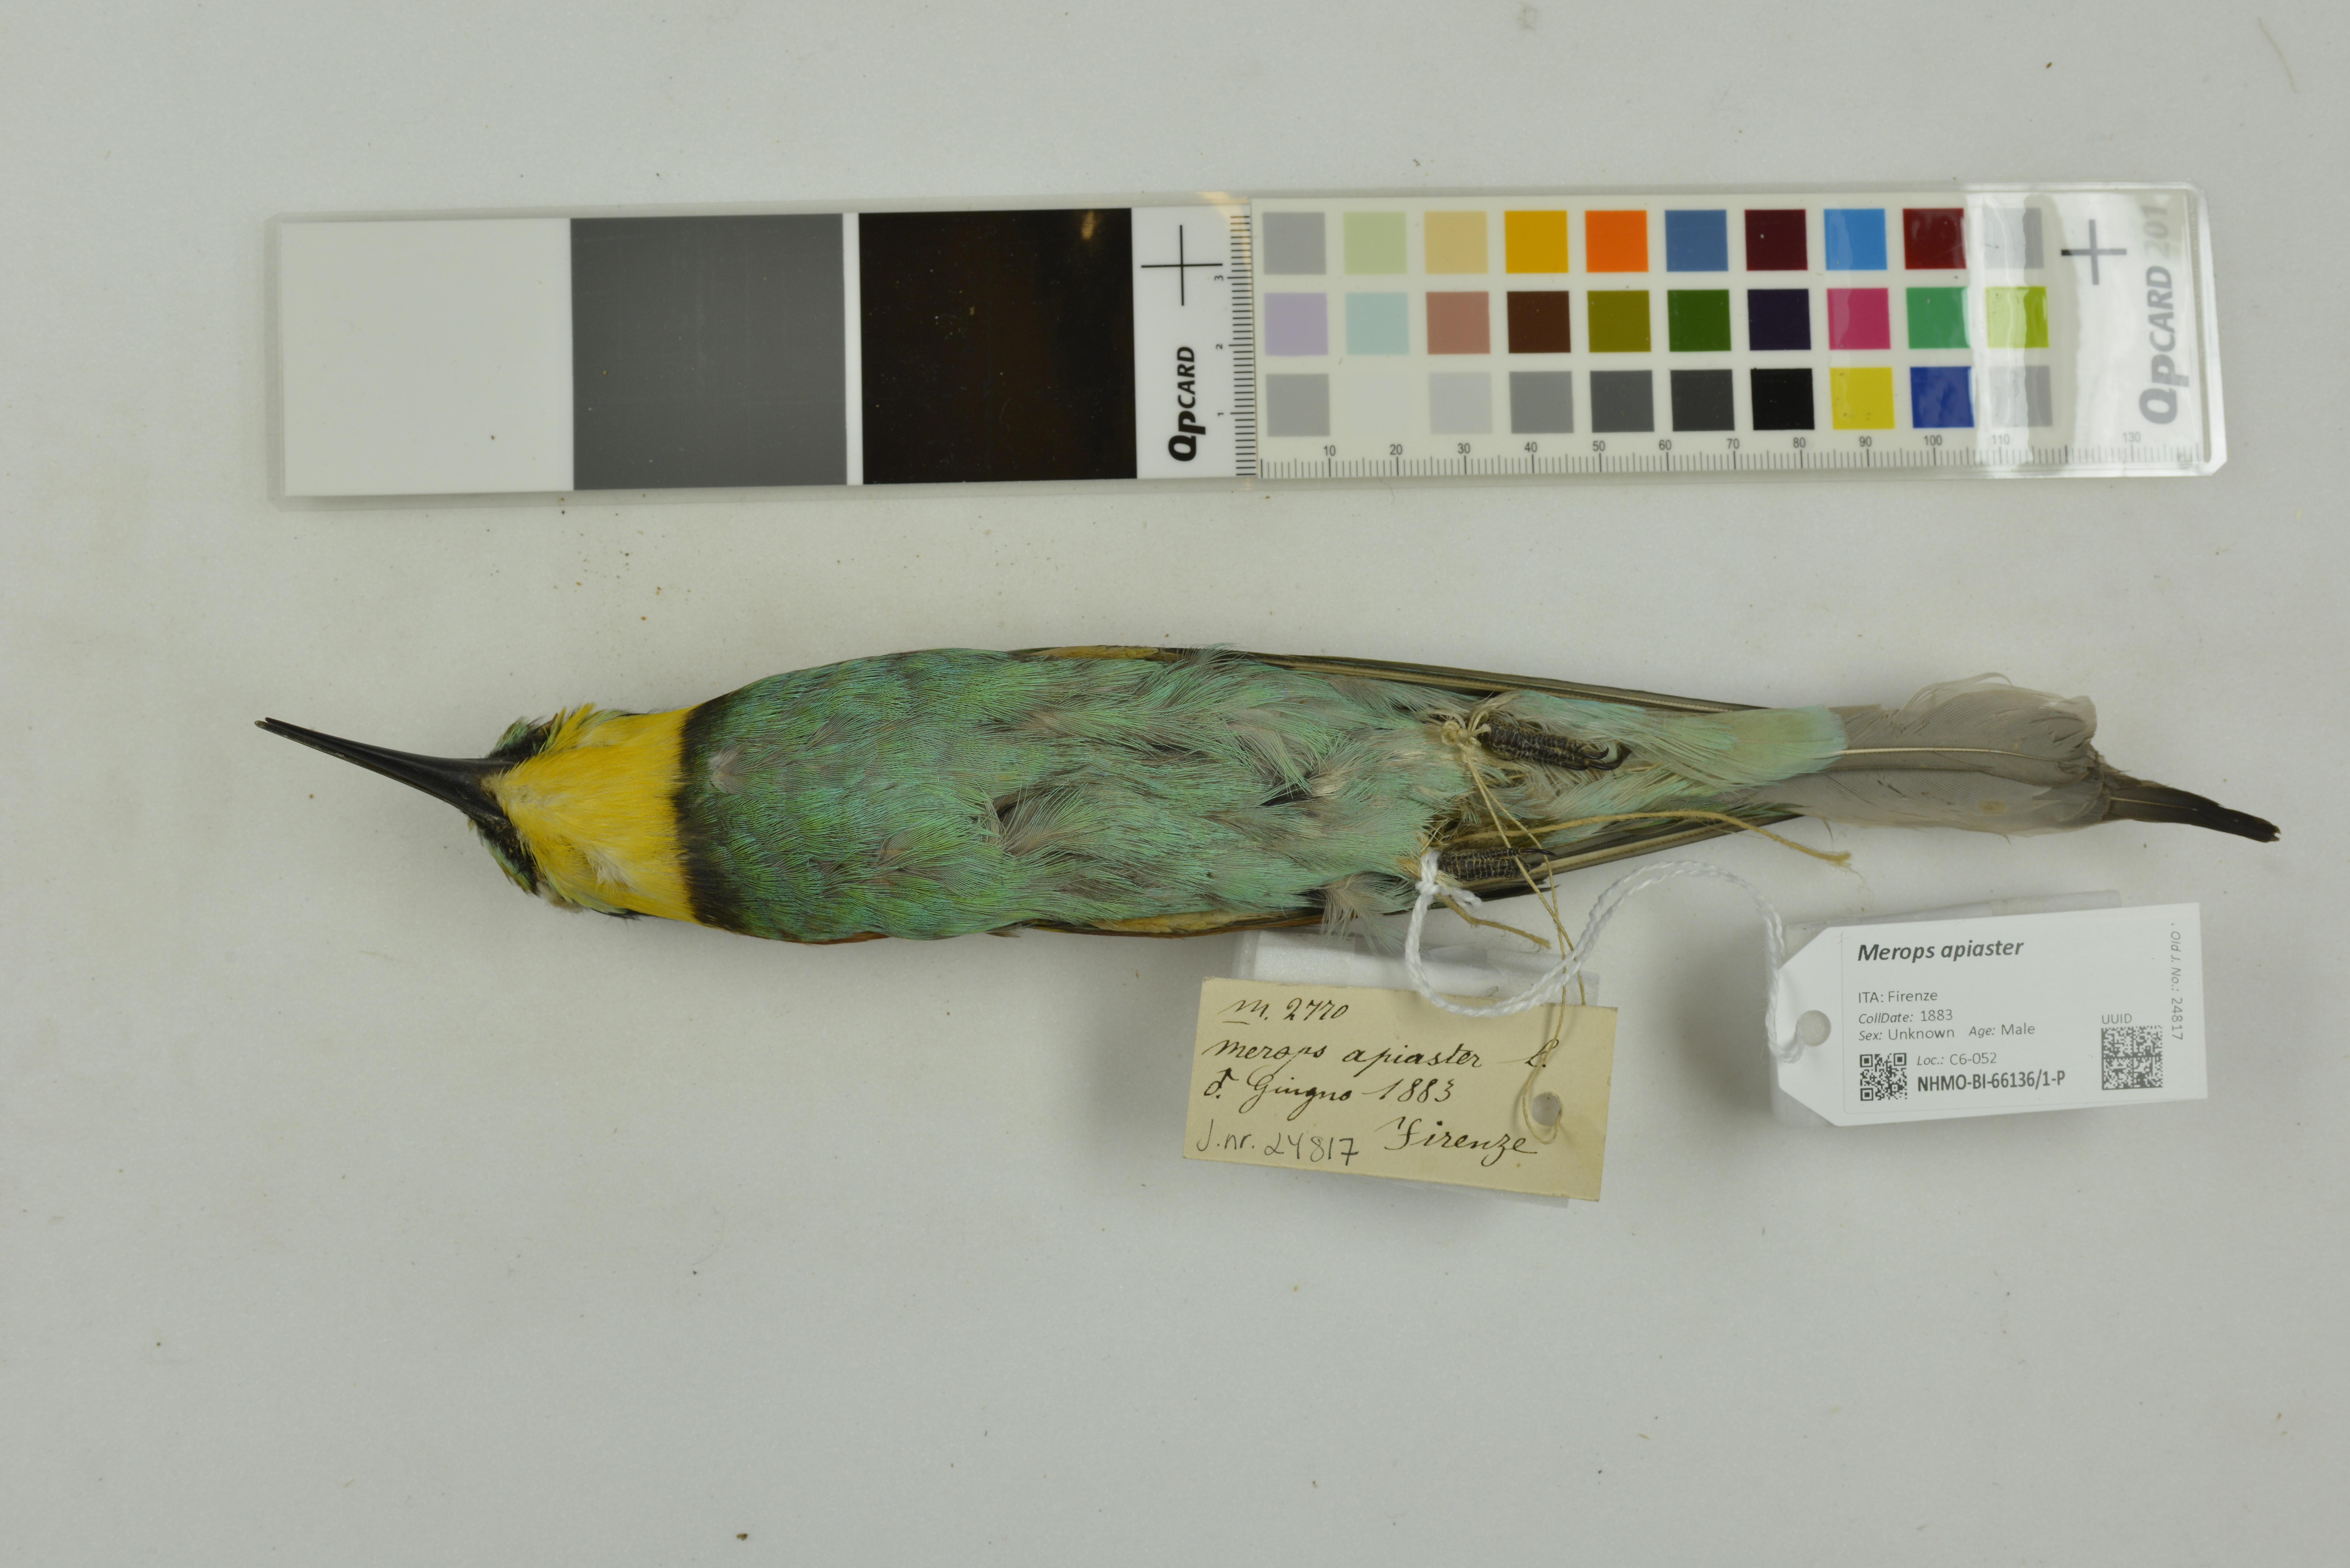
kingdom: Animalia
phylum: Chordata
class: Aves
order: Coraciiformes
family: Meropidae
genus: Merops
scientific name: Merops apiaster
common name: European bee-eater
